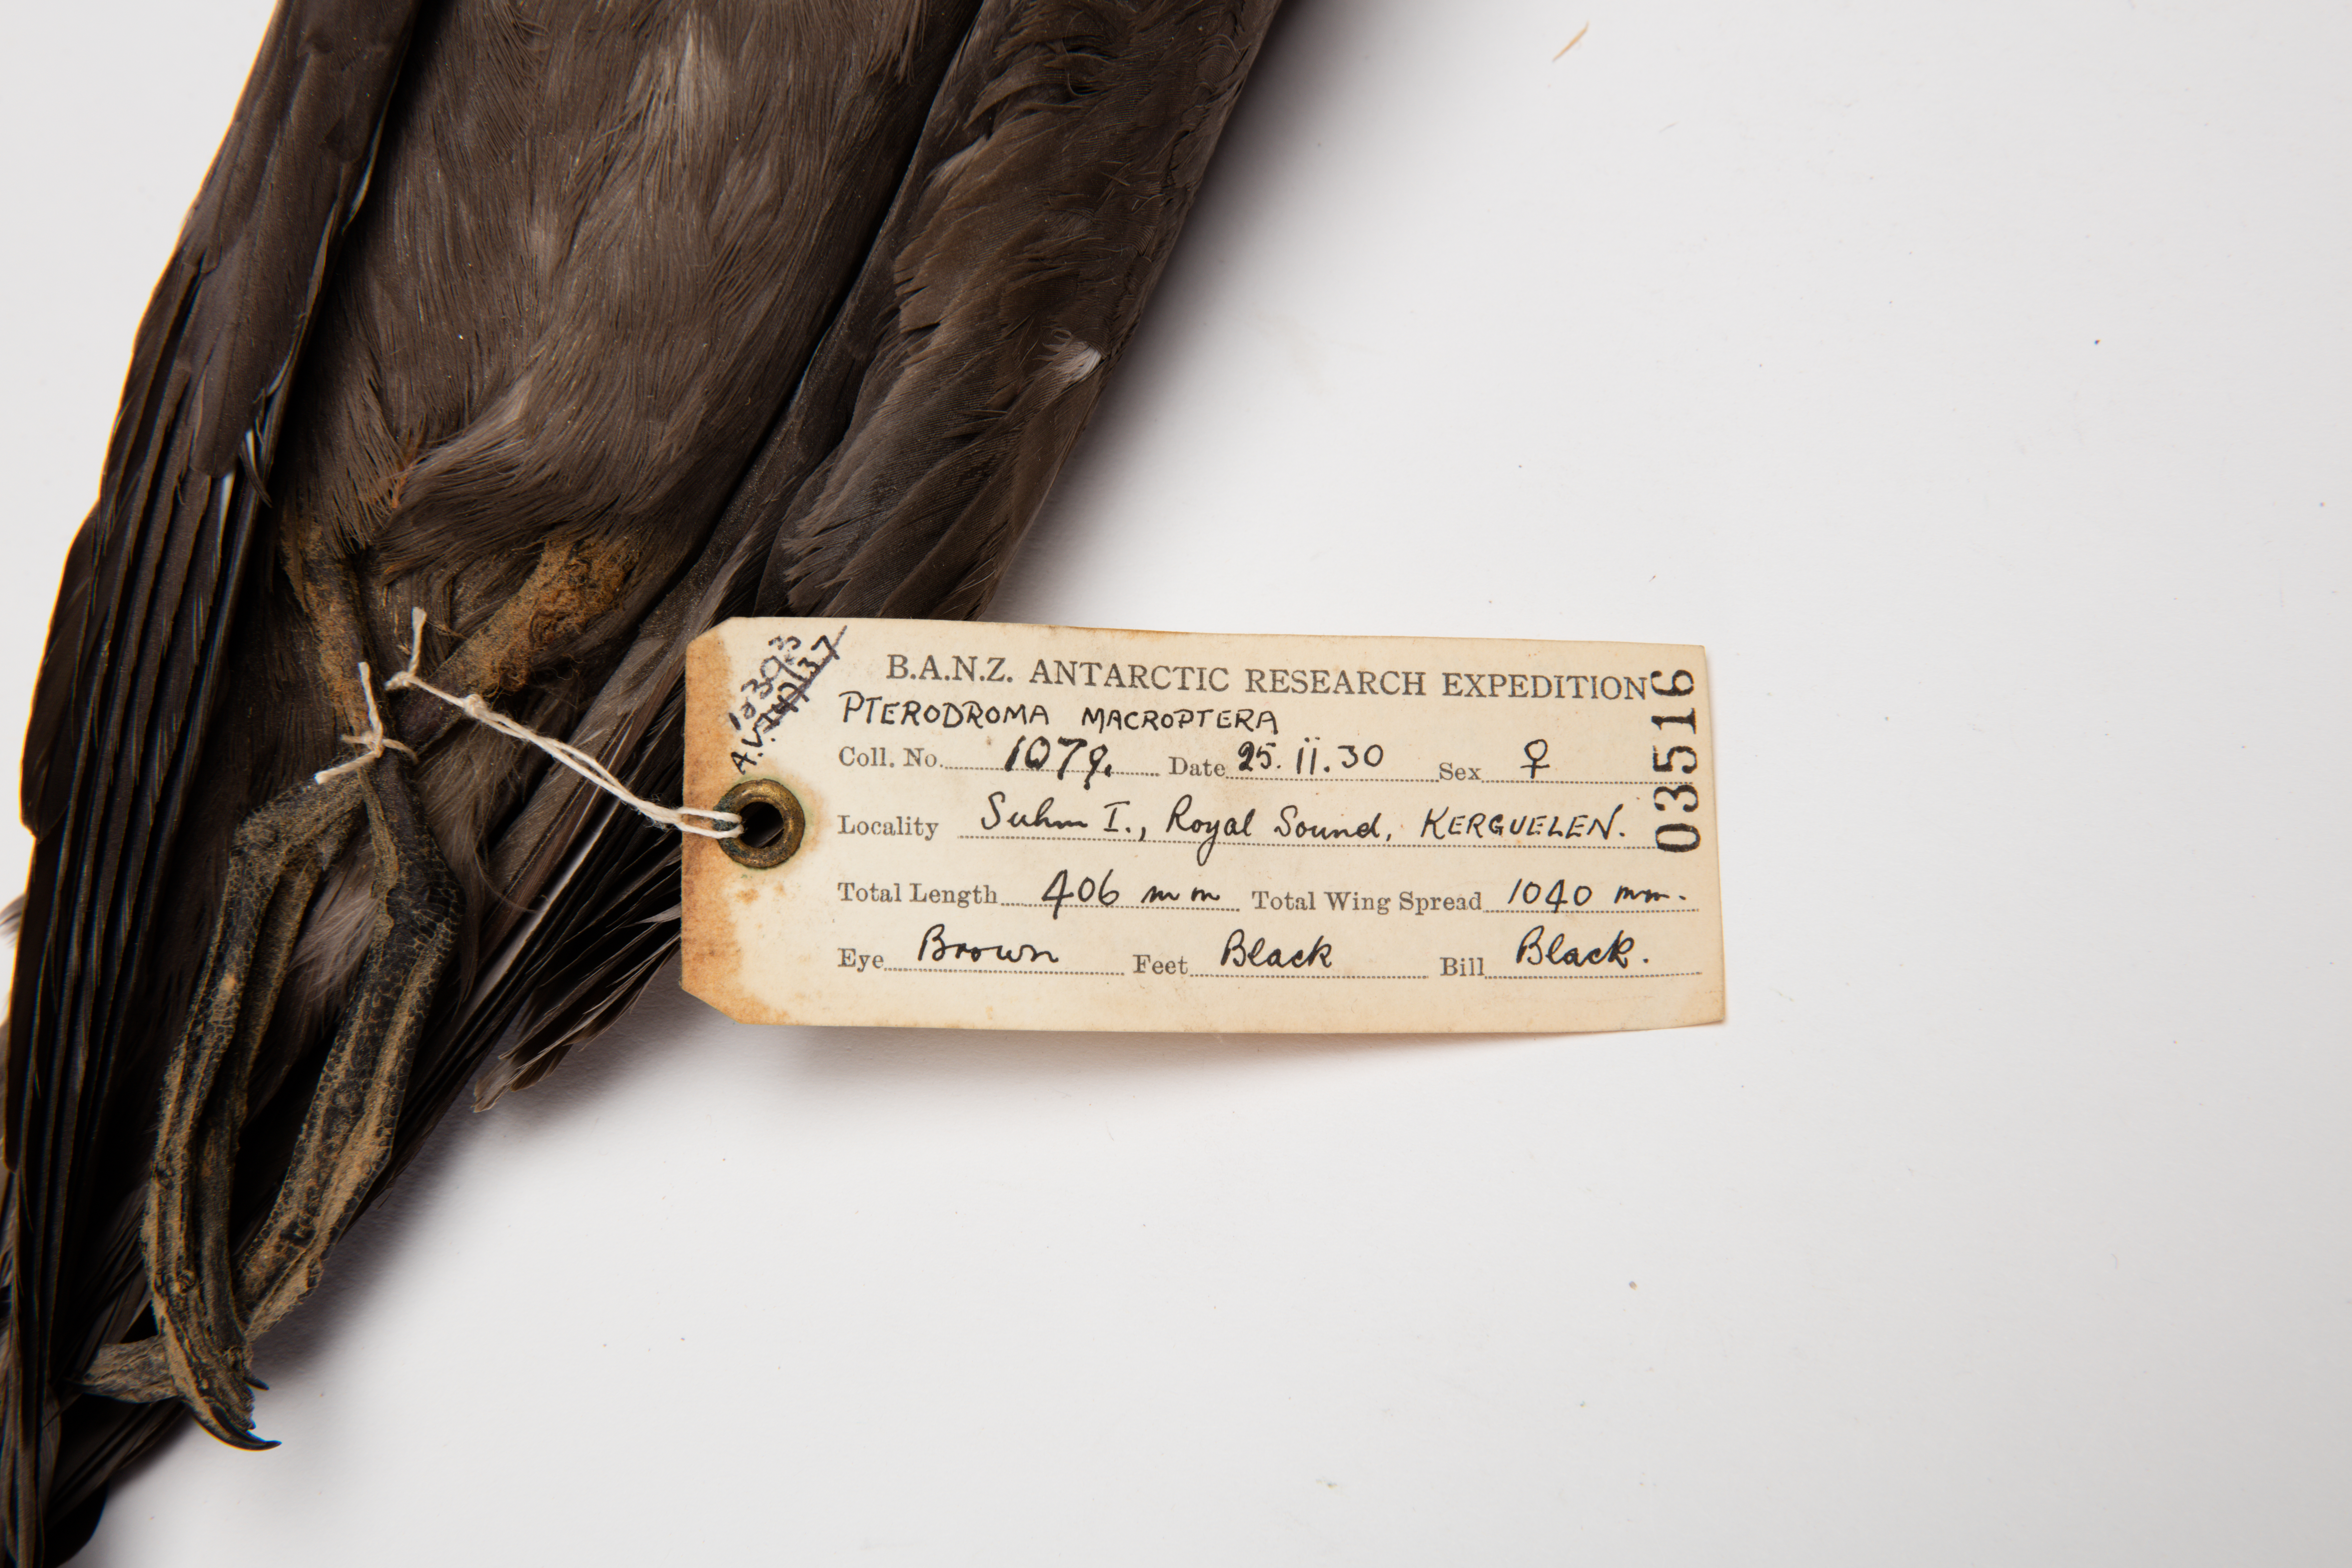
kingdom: Animalia
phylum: Chordata
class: Aves
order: Procellariiformes
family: Procellariidae
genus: Pterodroma
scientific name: Pterodroma macroptera
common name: Great-winged petrel
